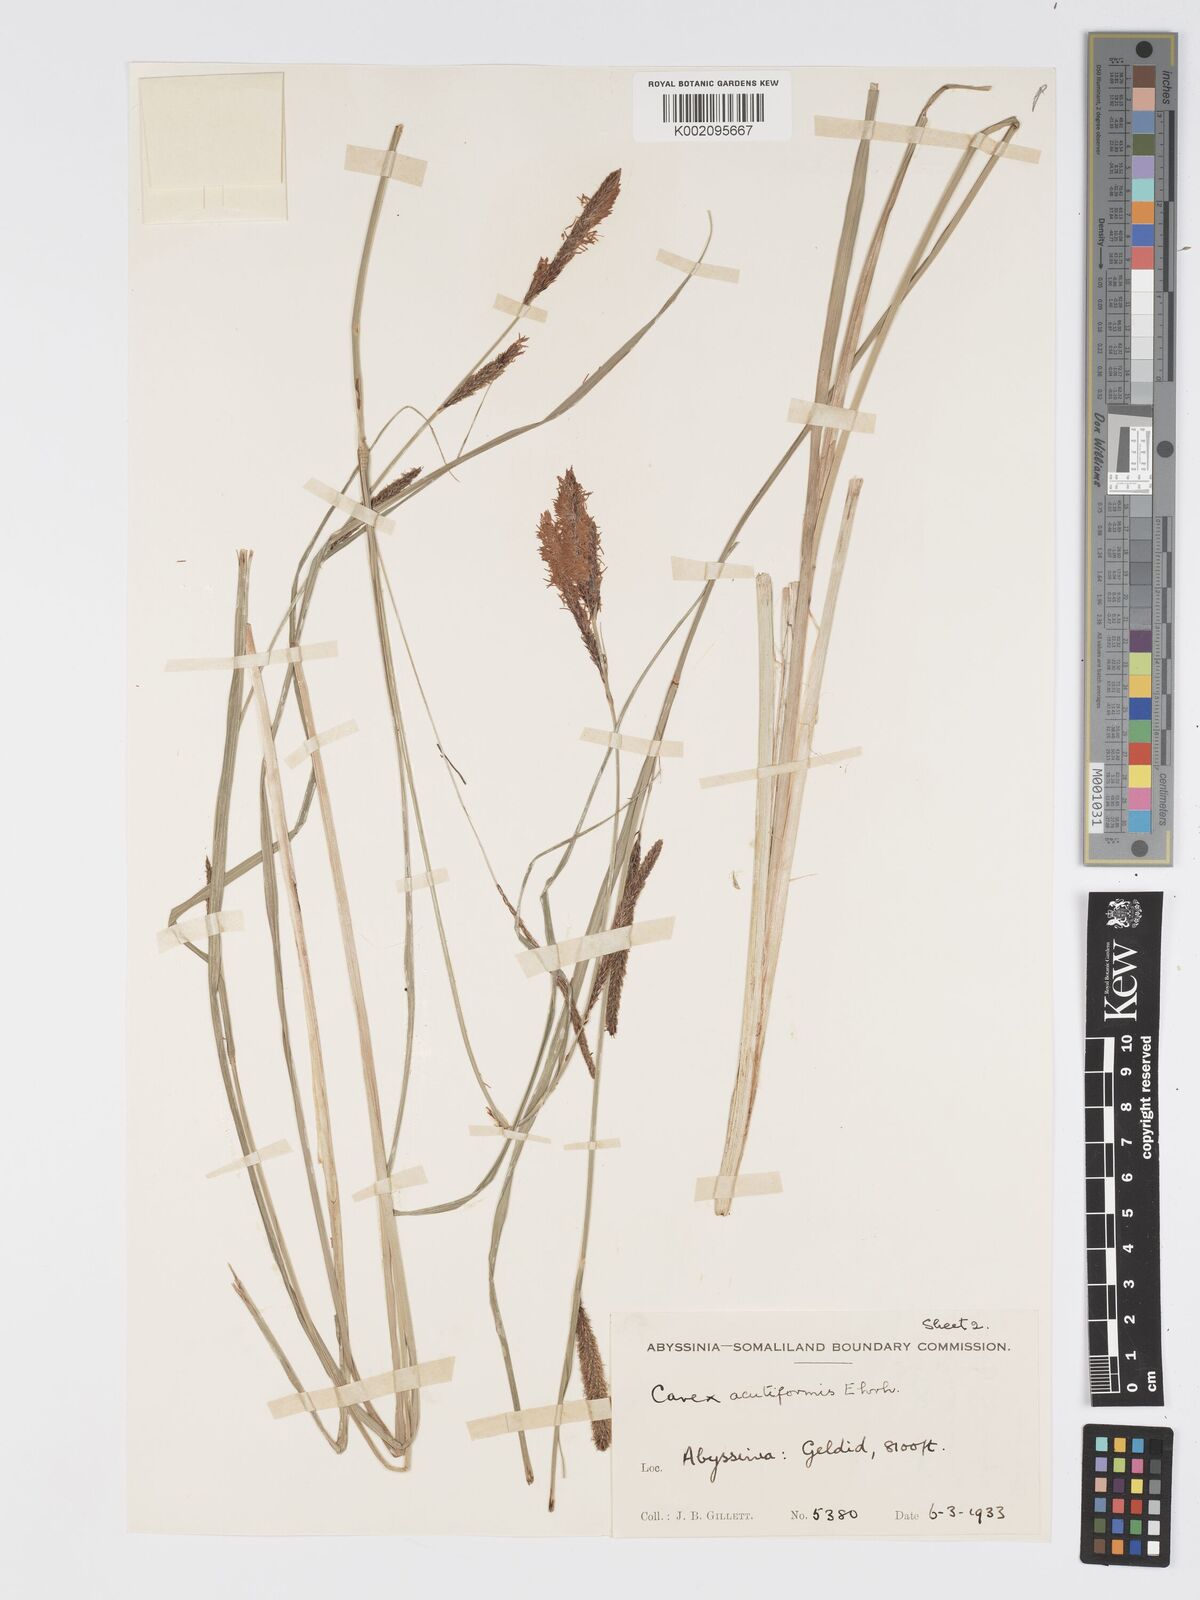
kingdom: Plantae
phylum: Tracheophyta
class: Liliopsida
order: Poales
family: Cyperaceae
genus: Carex
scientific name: Carex acutiformis
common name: Lesser pond-sedge
